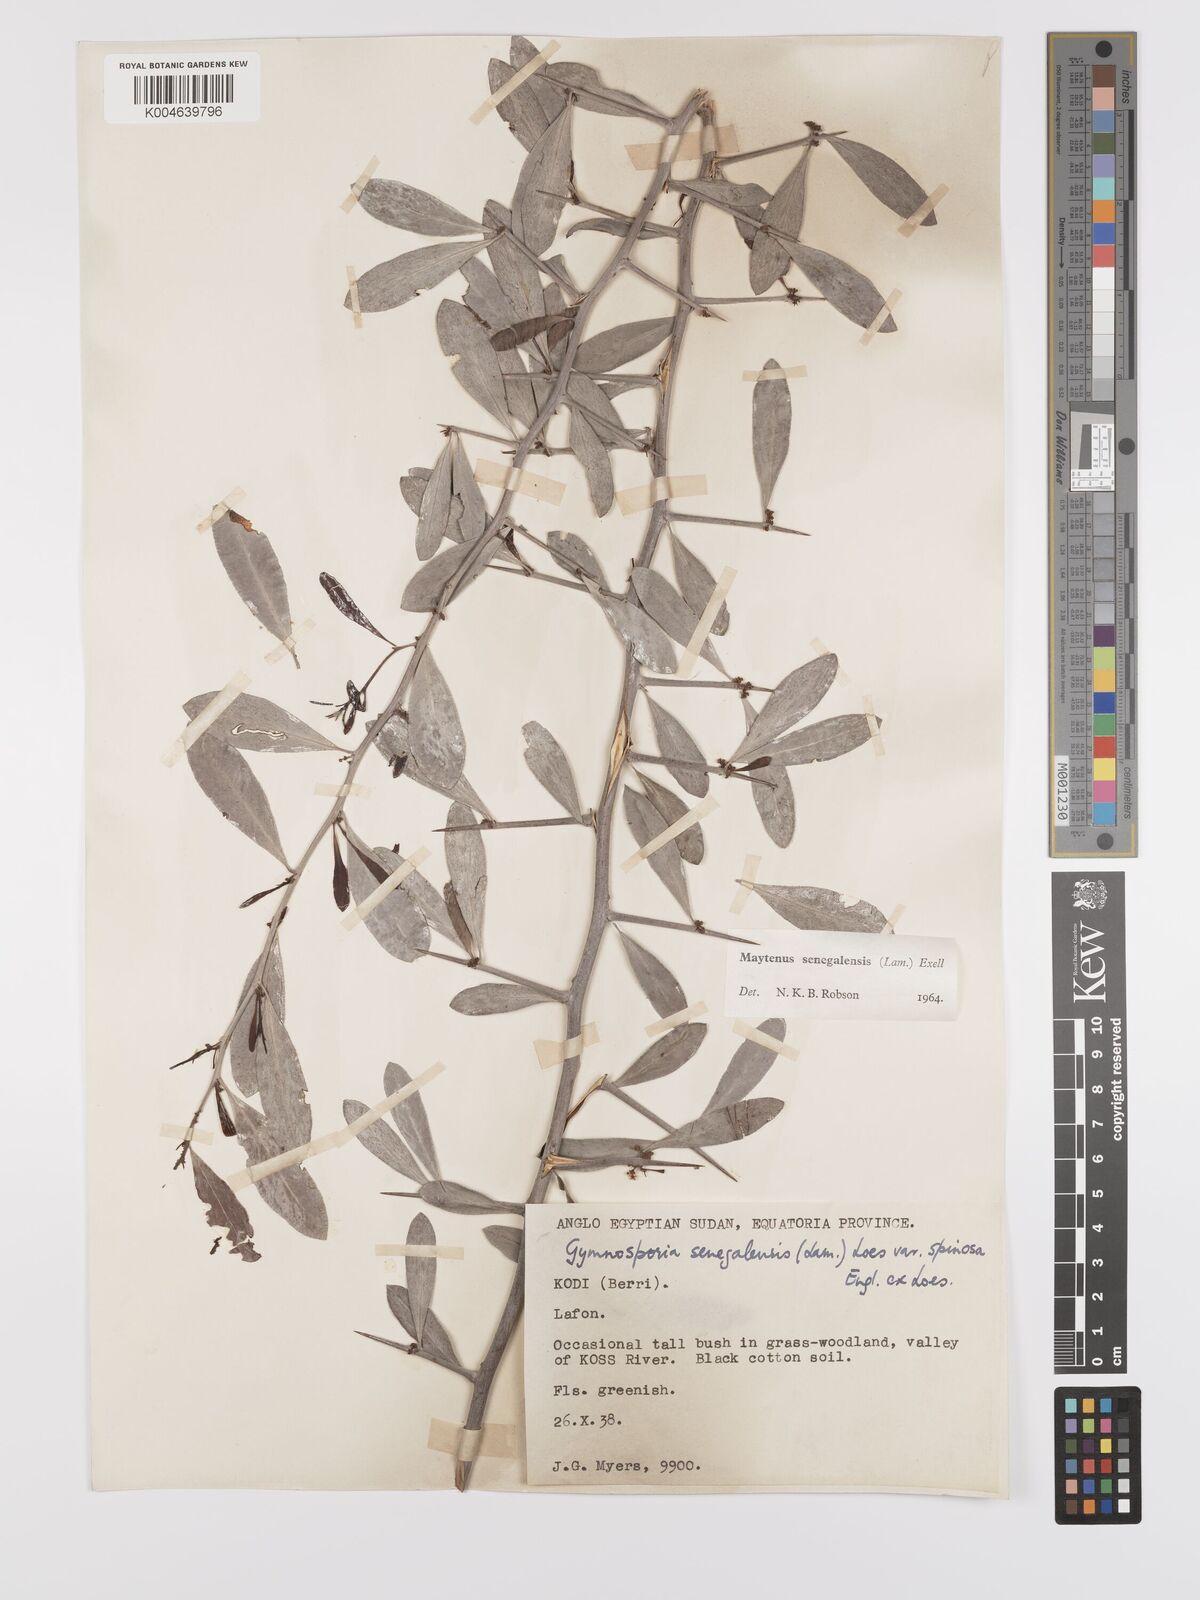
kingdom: Plantae
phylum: Tracheophyta
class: Magnoliopsida
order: Celastrales
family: Celastraceae
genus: Gymnosporia
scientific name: Gymnosporia senegalensis
